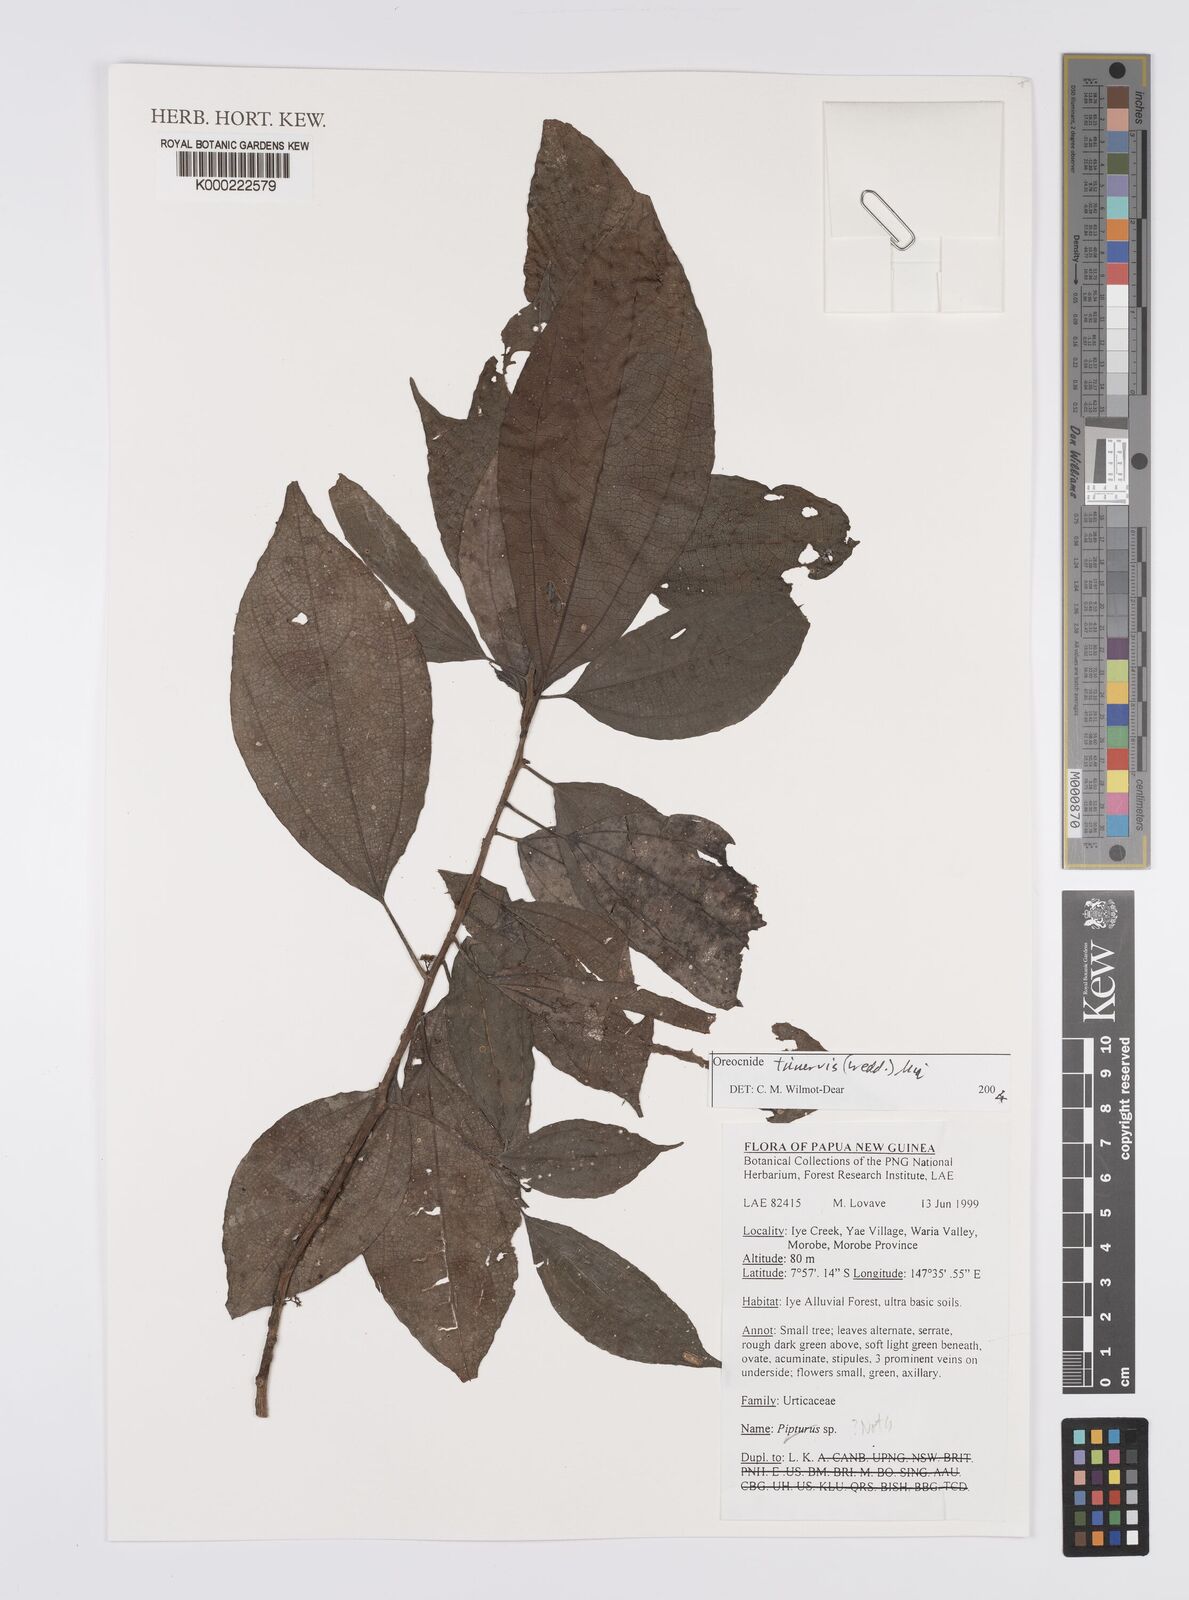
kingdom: Plantae
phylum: Tracheophyta
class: Magnoliopsida
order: Rosales
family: Urticaceae
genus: Oreocnide
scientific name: Oreocnide trinervis
